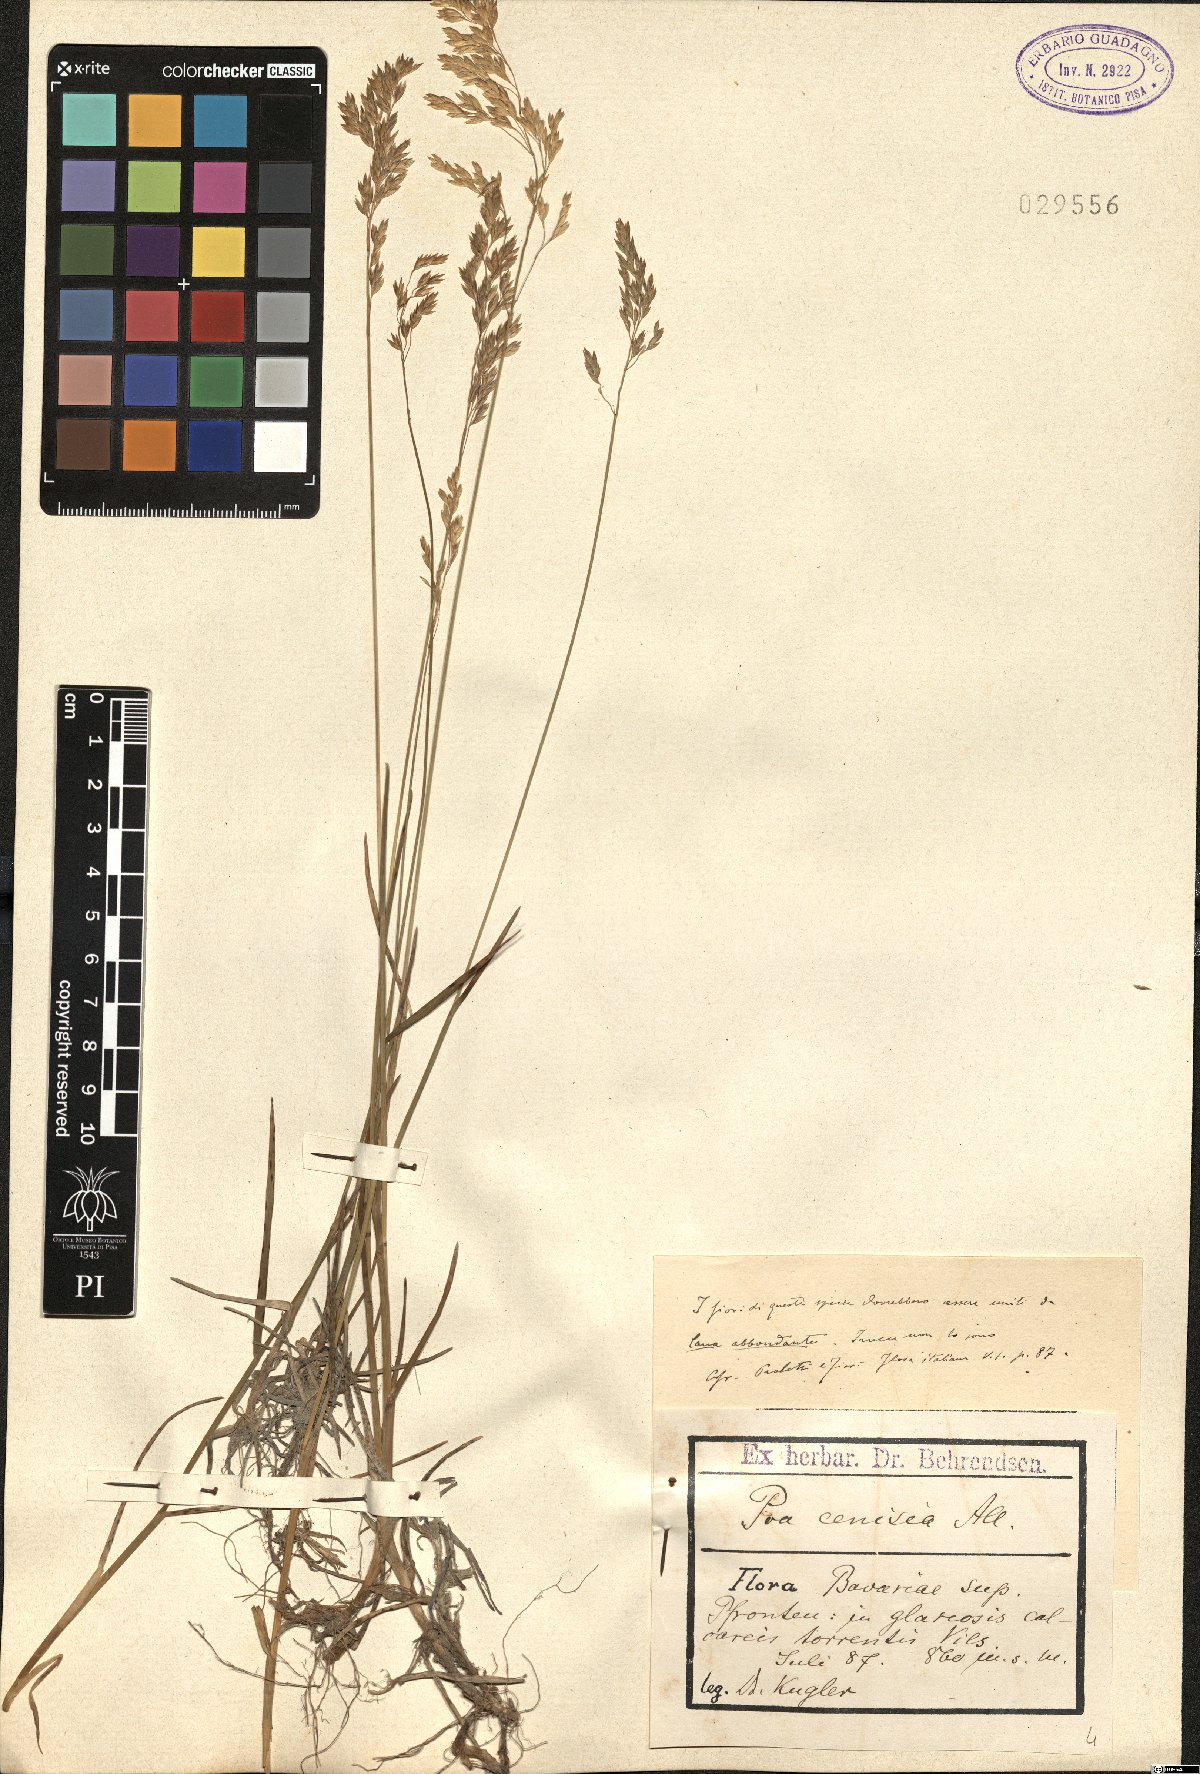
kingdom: Plantae
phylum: Tracheophyta
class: Liliopsida
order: Poales
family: Poaceae
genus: Poa
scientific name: Poa cenisia
